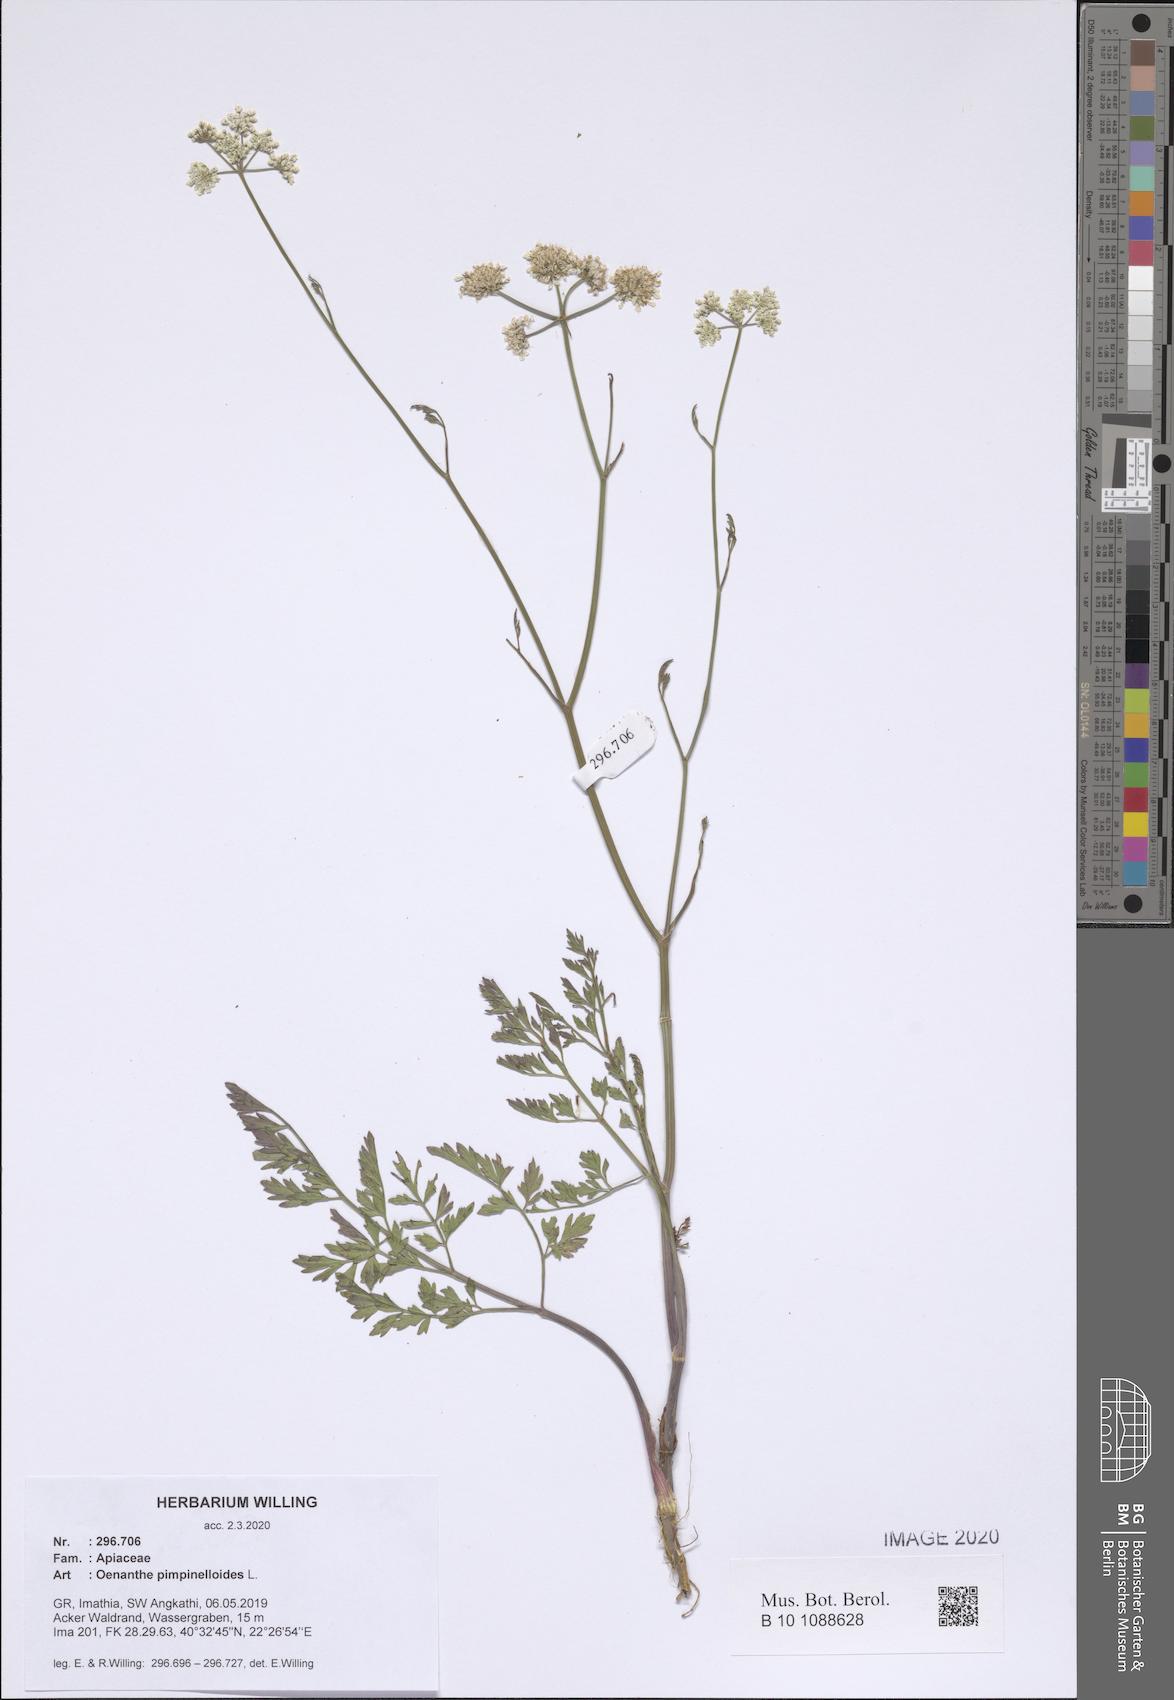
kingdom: Plantae
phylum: Tracheophyta
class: Magnoliopsida
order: Apiales
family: Apiaceae
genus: Oenanthe
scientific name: Oenanthe pimpinelloides
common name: Corky-fruited water-dropwort
